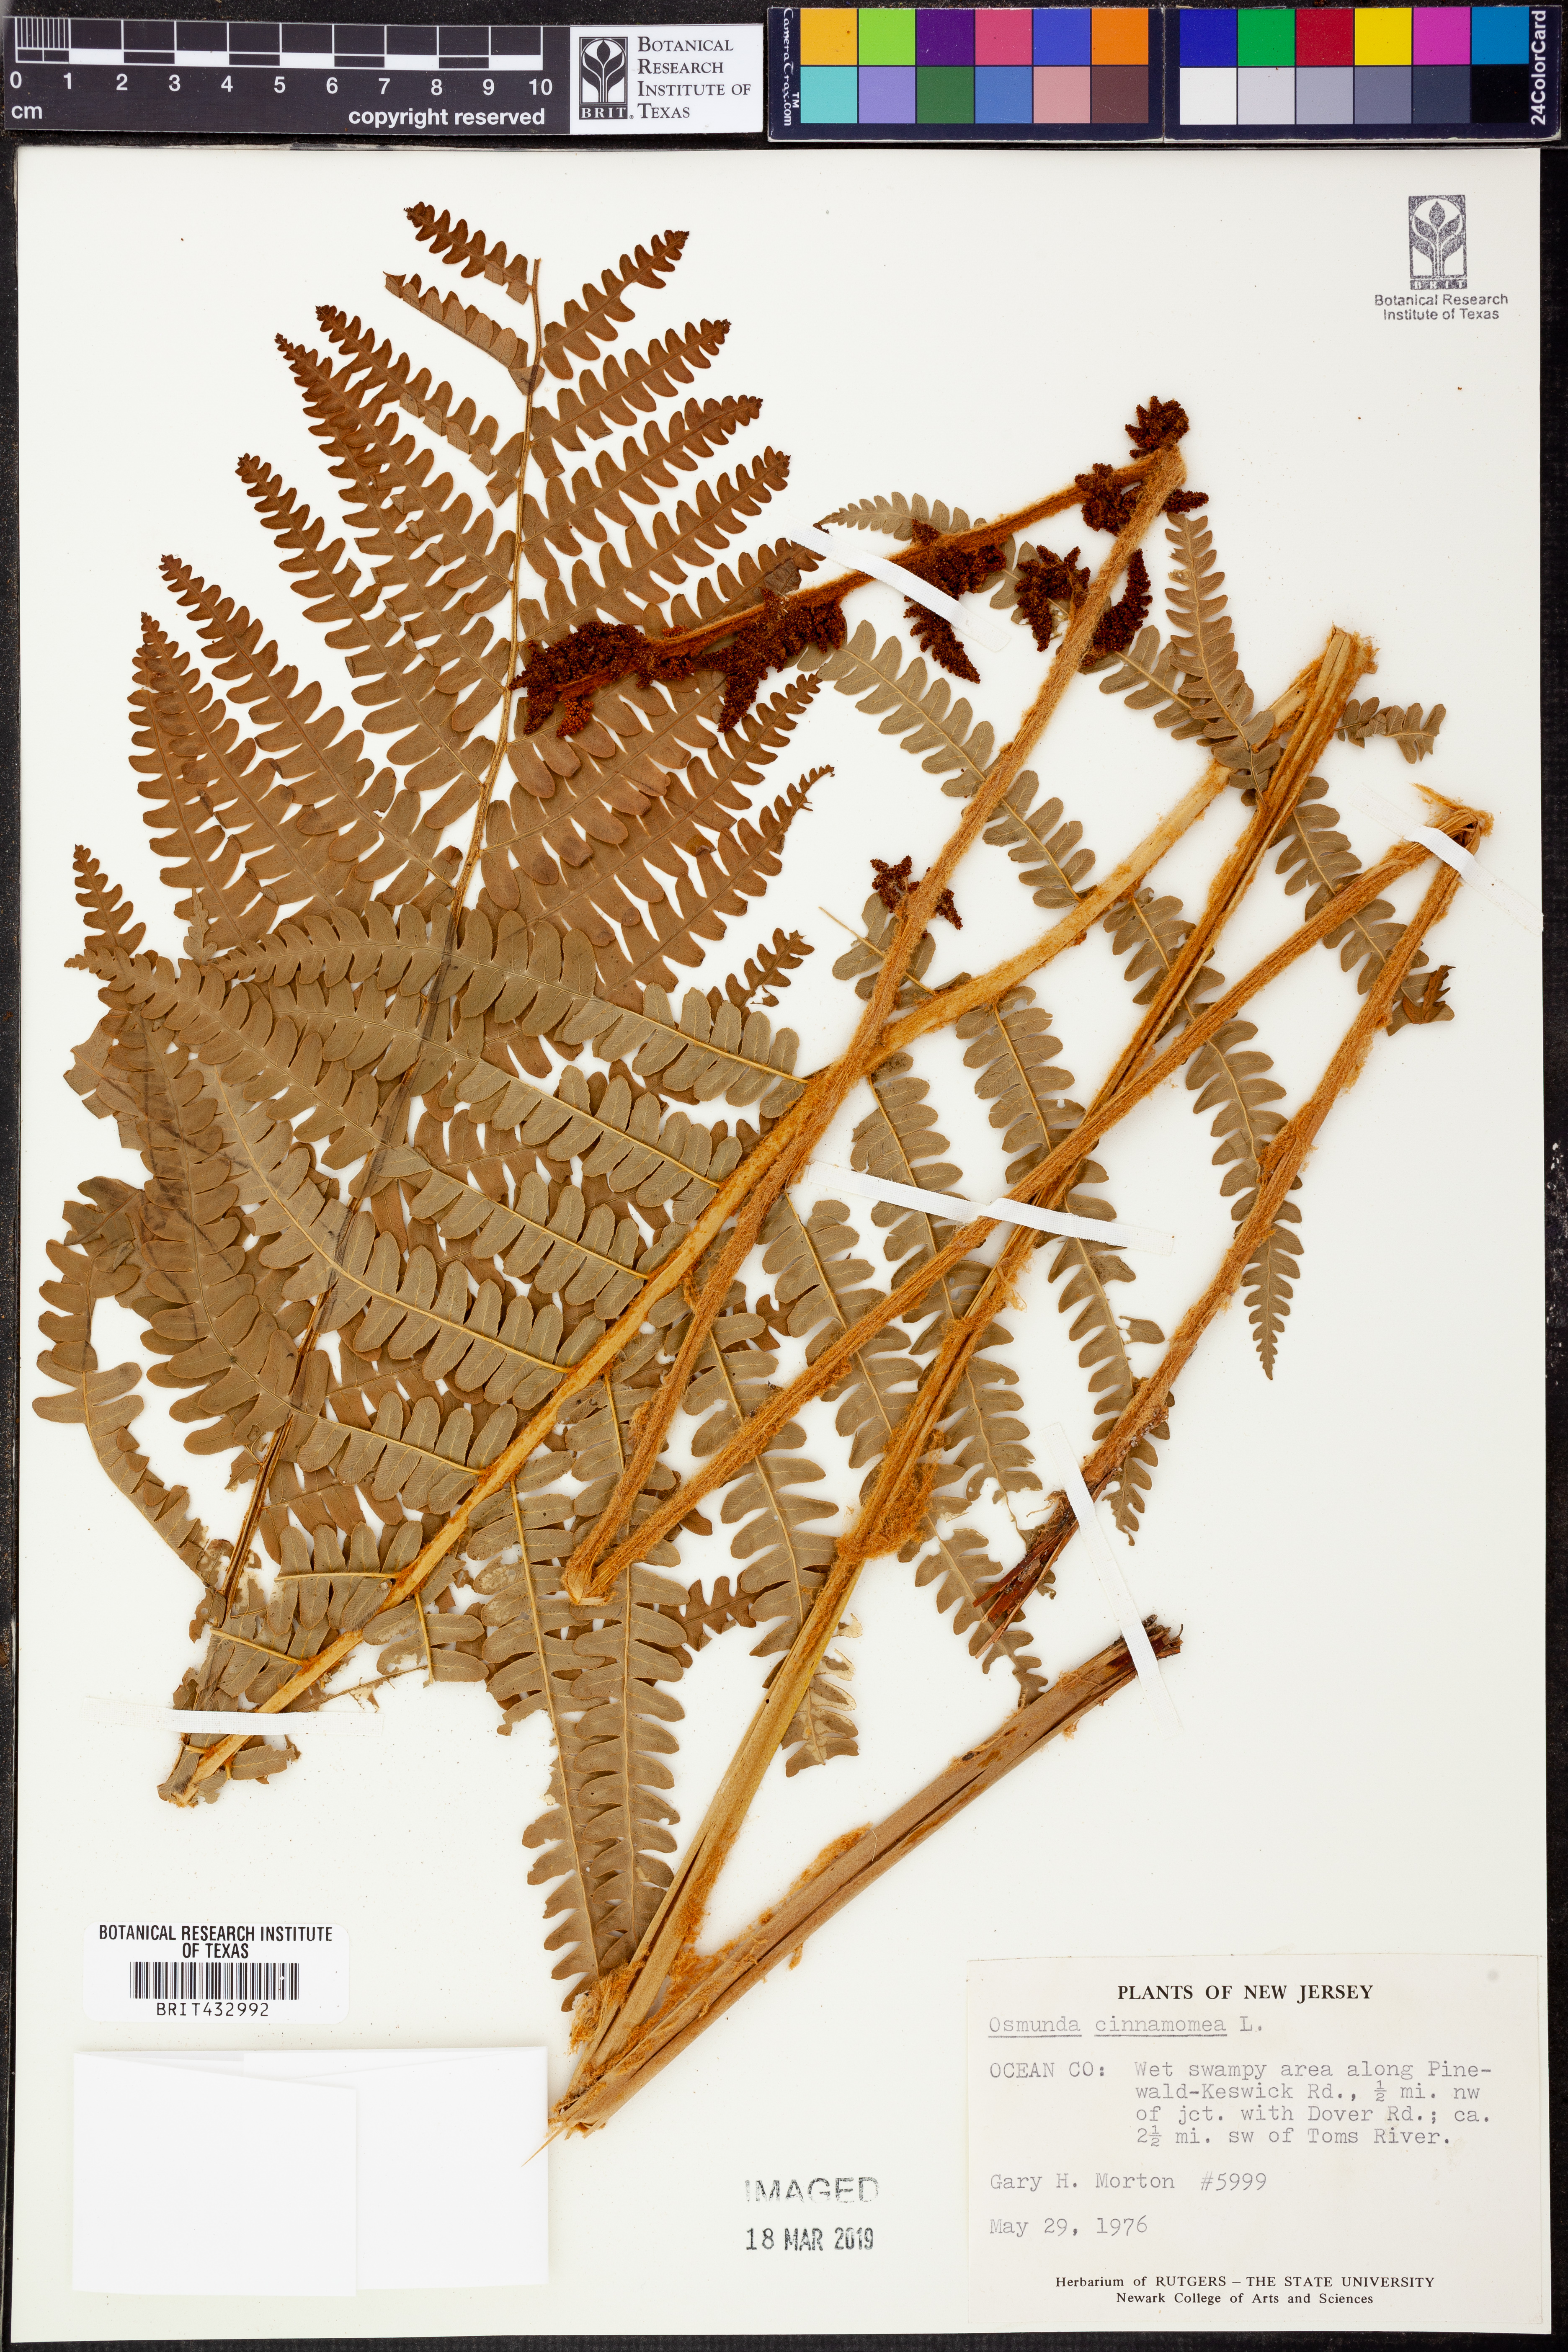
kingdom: Plantae
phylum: Tracheophyta
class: Polypodiopsida
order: Osmundales
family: Osmundaceae
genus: Osmundastrum
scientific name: Osmundastrum cinnamomeum
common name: Cinnamon fern
